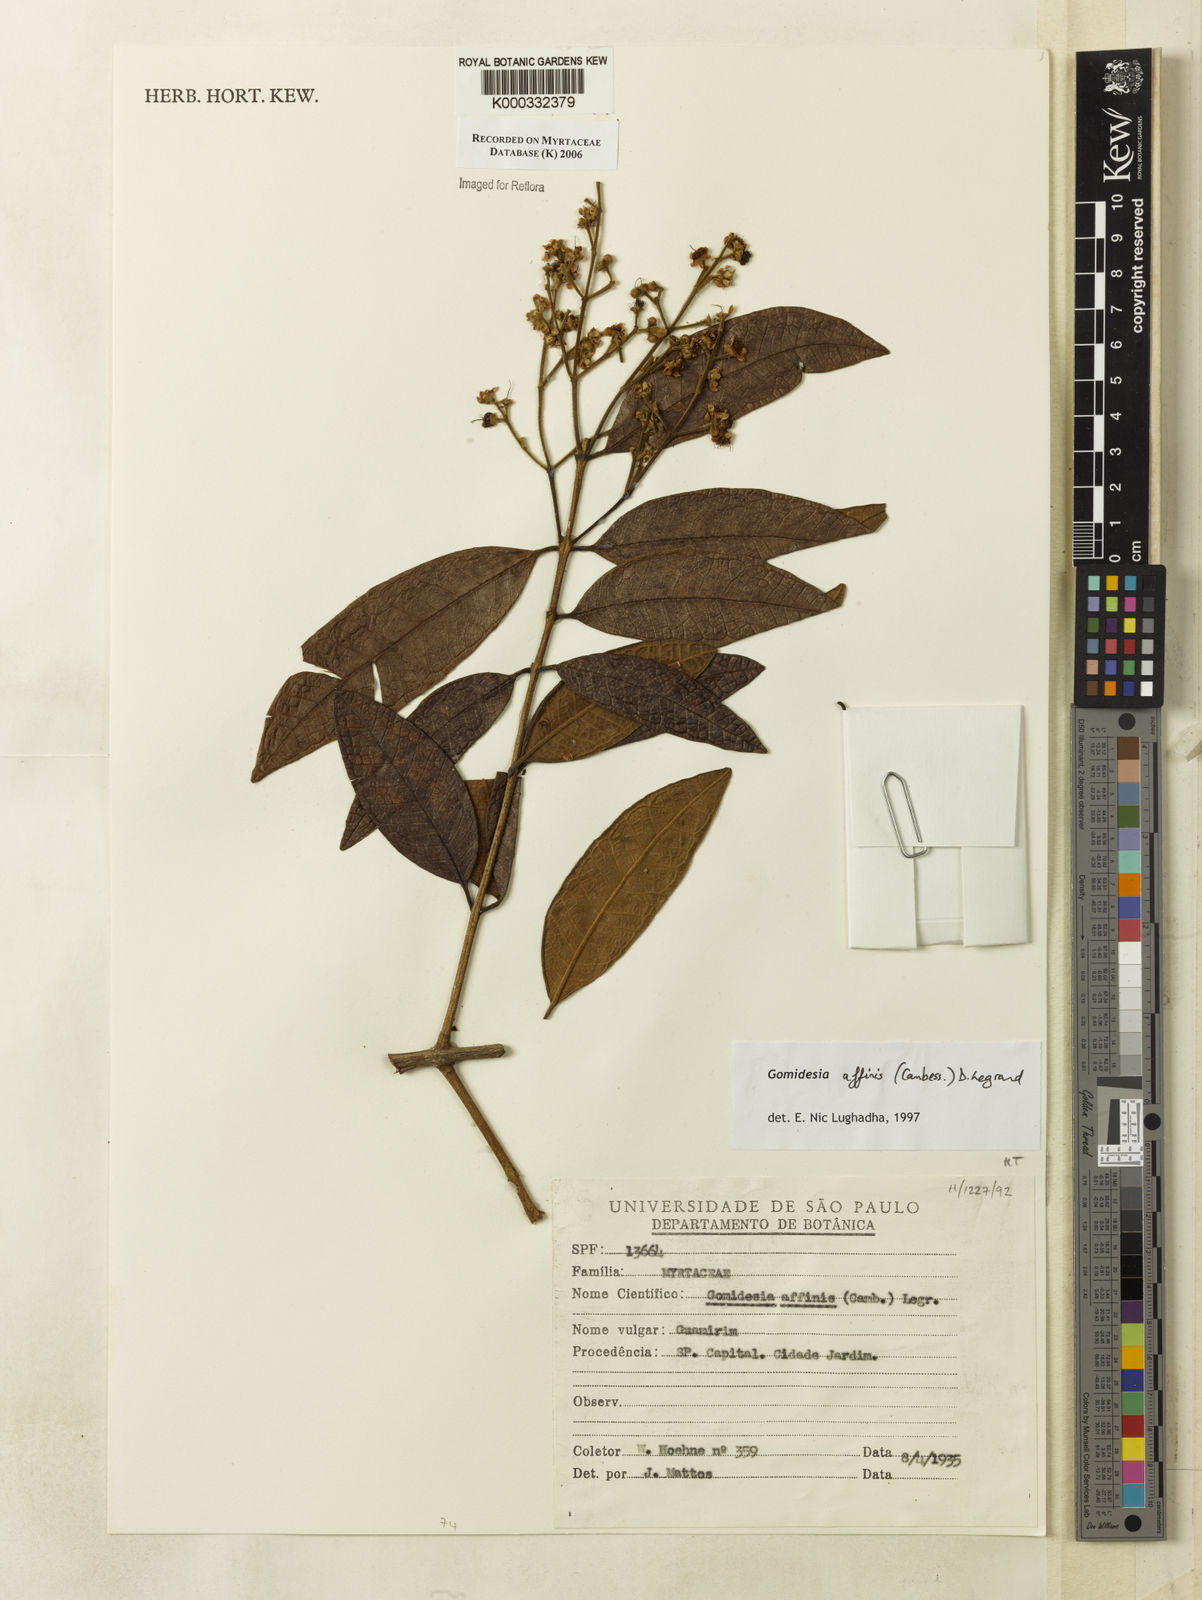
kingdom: Plantae
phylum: Tracheophyta
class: Magnoliopsida
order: Myrtales
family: Myrtaceae
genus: Myrcia
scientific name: Myrcia hebepetala
